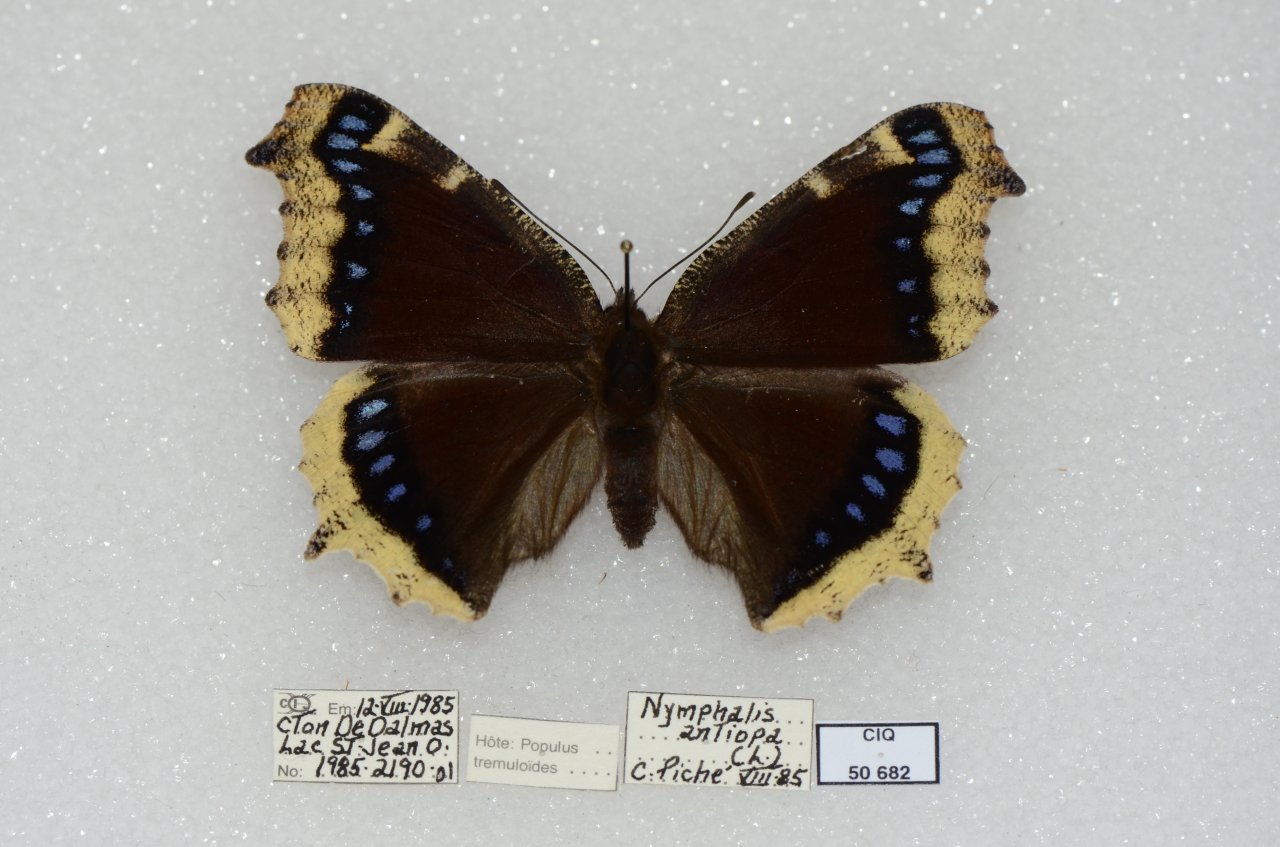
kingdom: Animalia
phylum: Arthropoda
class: Insecta
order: Lepidoptera
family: Nymphalidae
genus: Nymphalis
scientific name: Nymphalis antiopa
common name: Mourning Cloak
